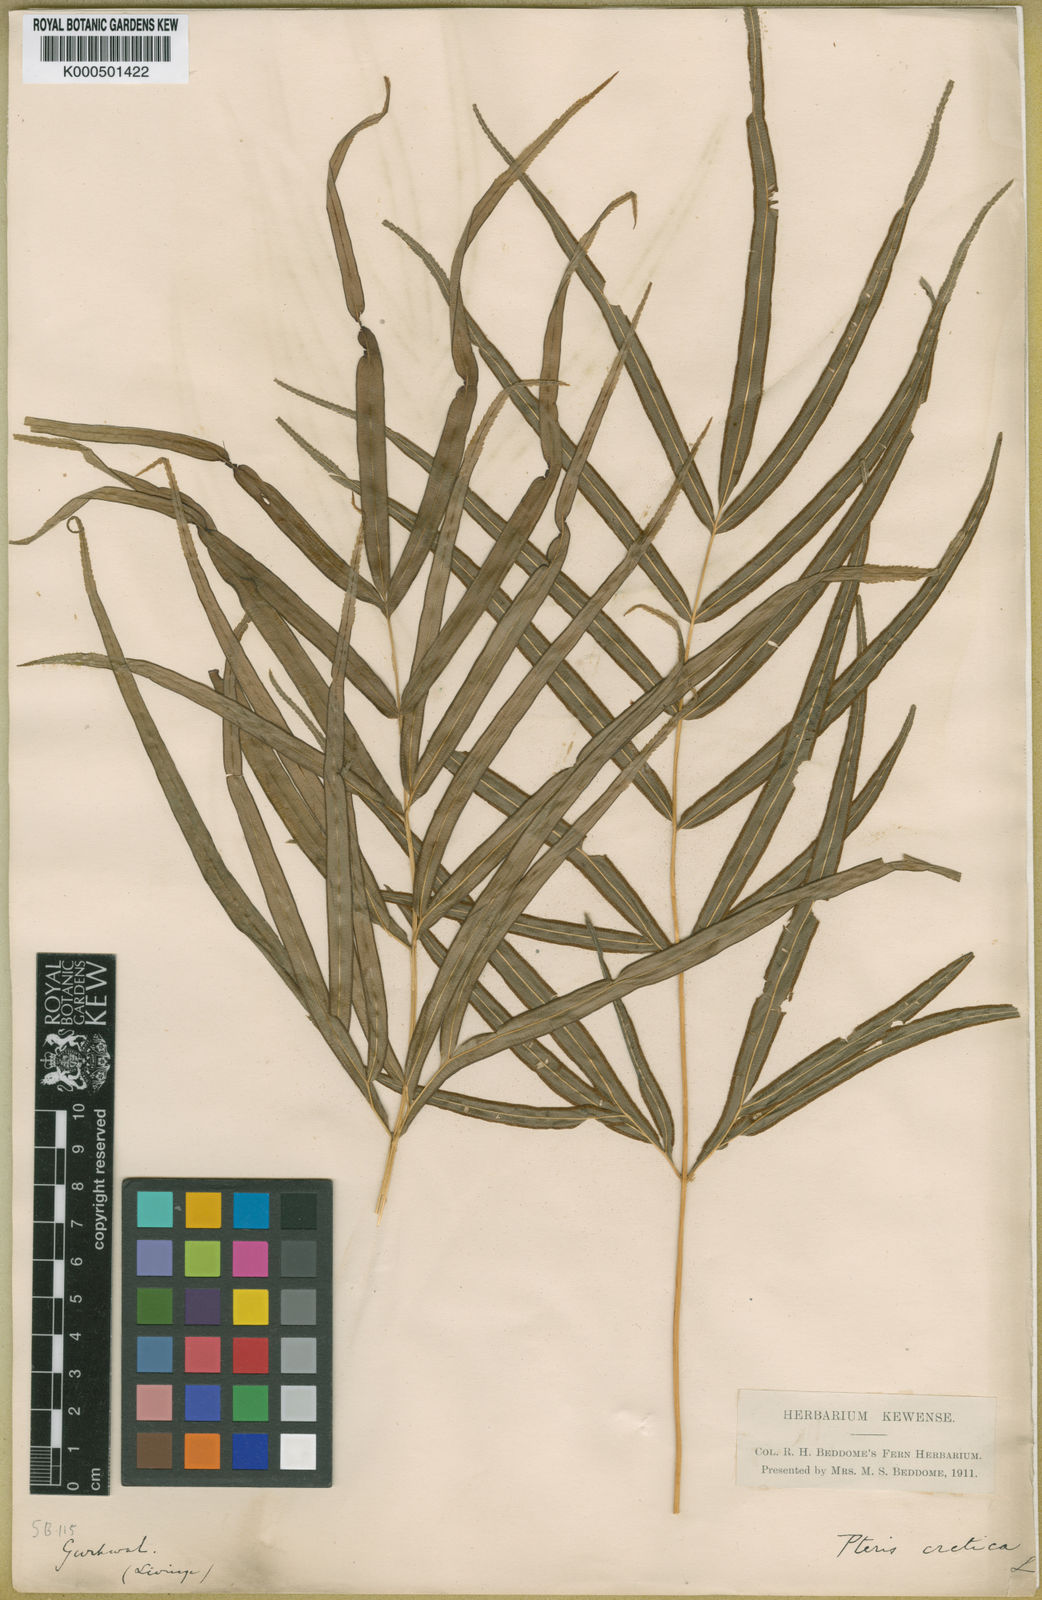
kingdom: Plantae
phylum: Tracheophyta
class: Polypodiopsida
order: Polypodiales
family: Pteridaceae
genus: Pteris
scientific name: Pteris cretica
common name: Ribbon fern
